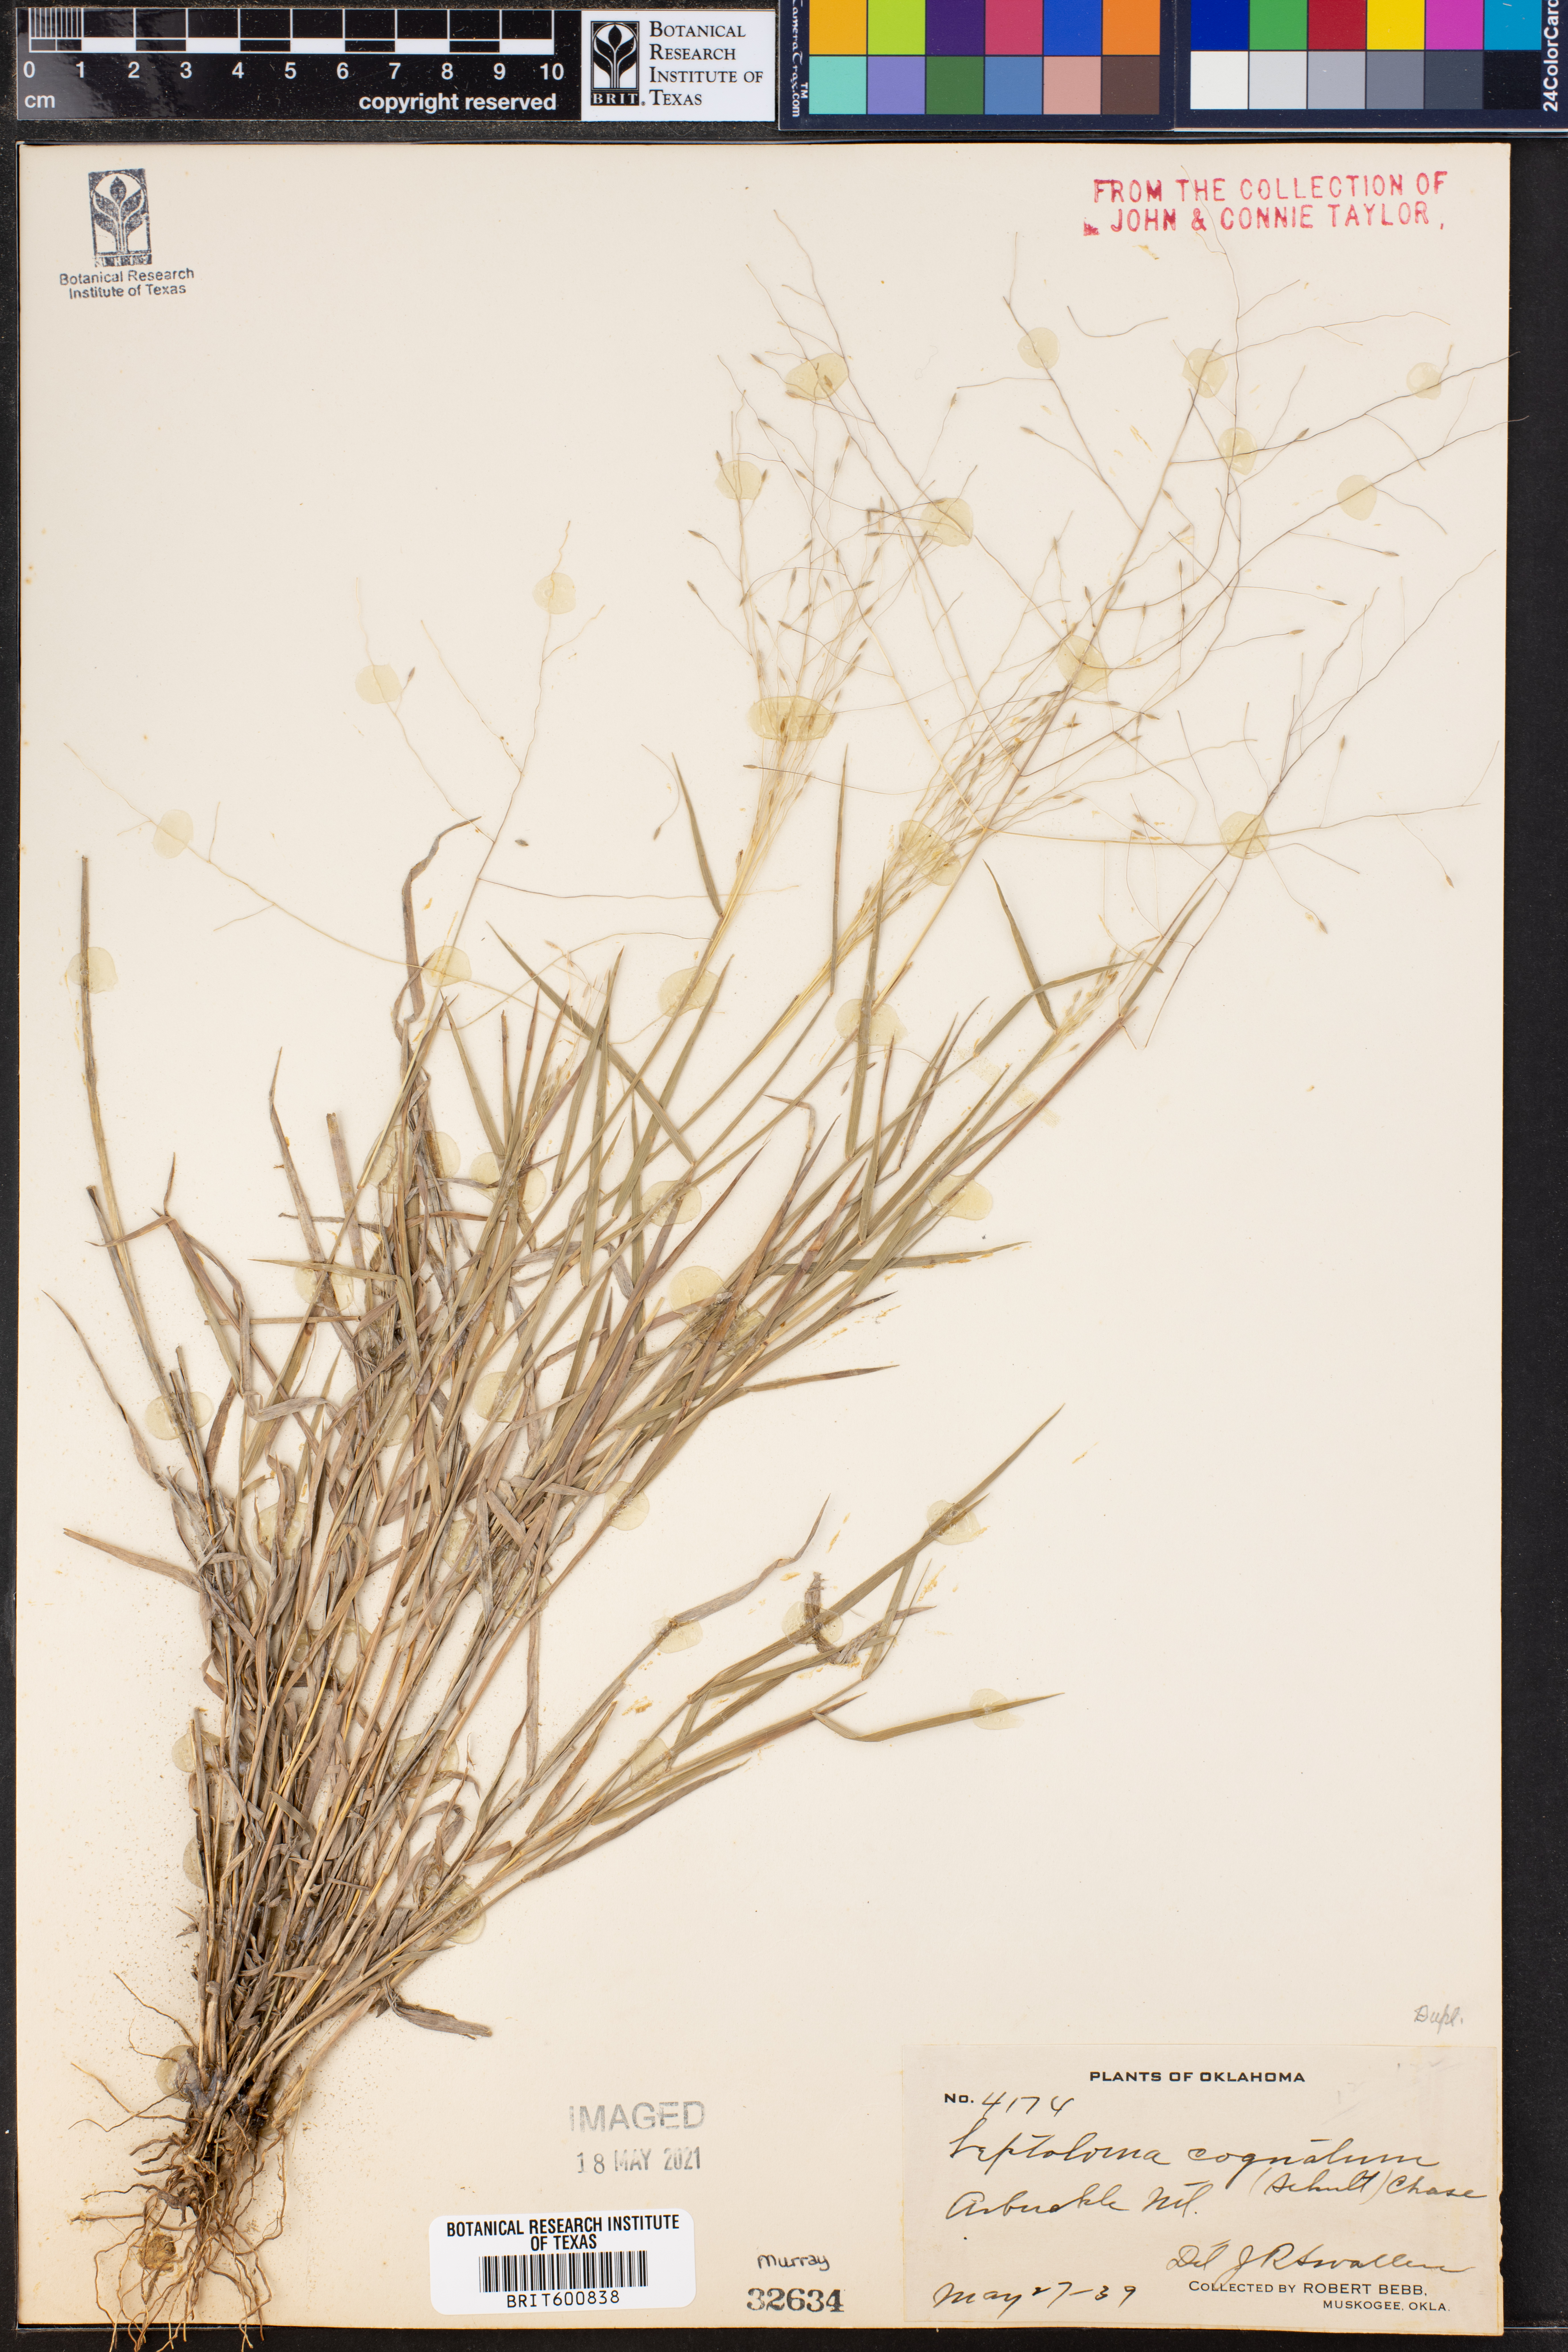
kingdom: Plantae
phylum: Tracheophyta
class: Liliopsida
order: Poales
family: Poaceae
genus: Digitaria
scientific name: Digitaria cognata
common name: Fall witchgrass
